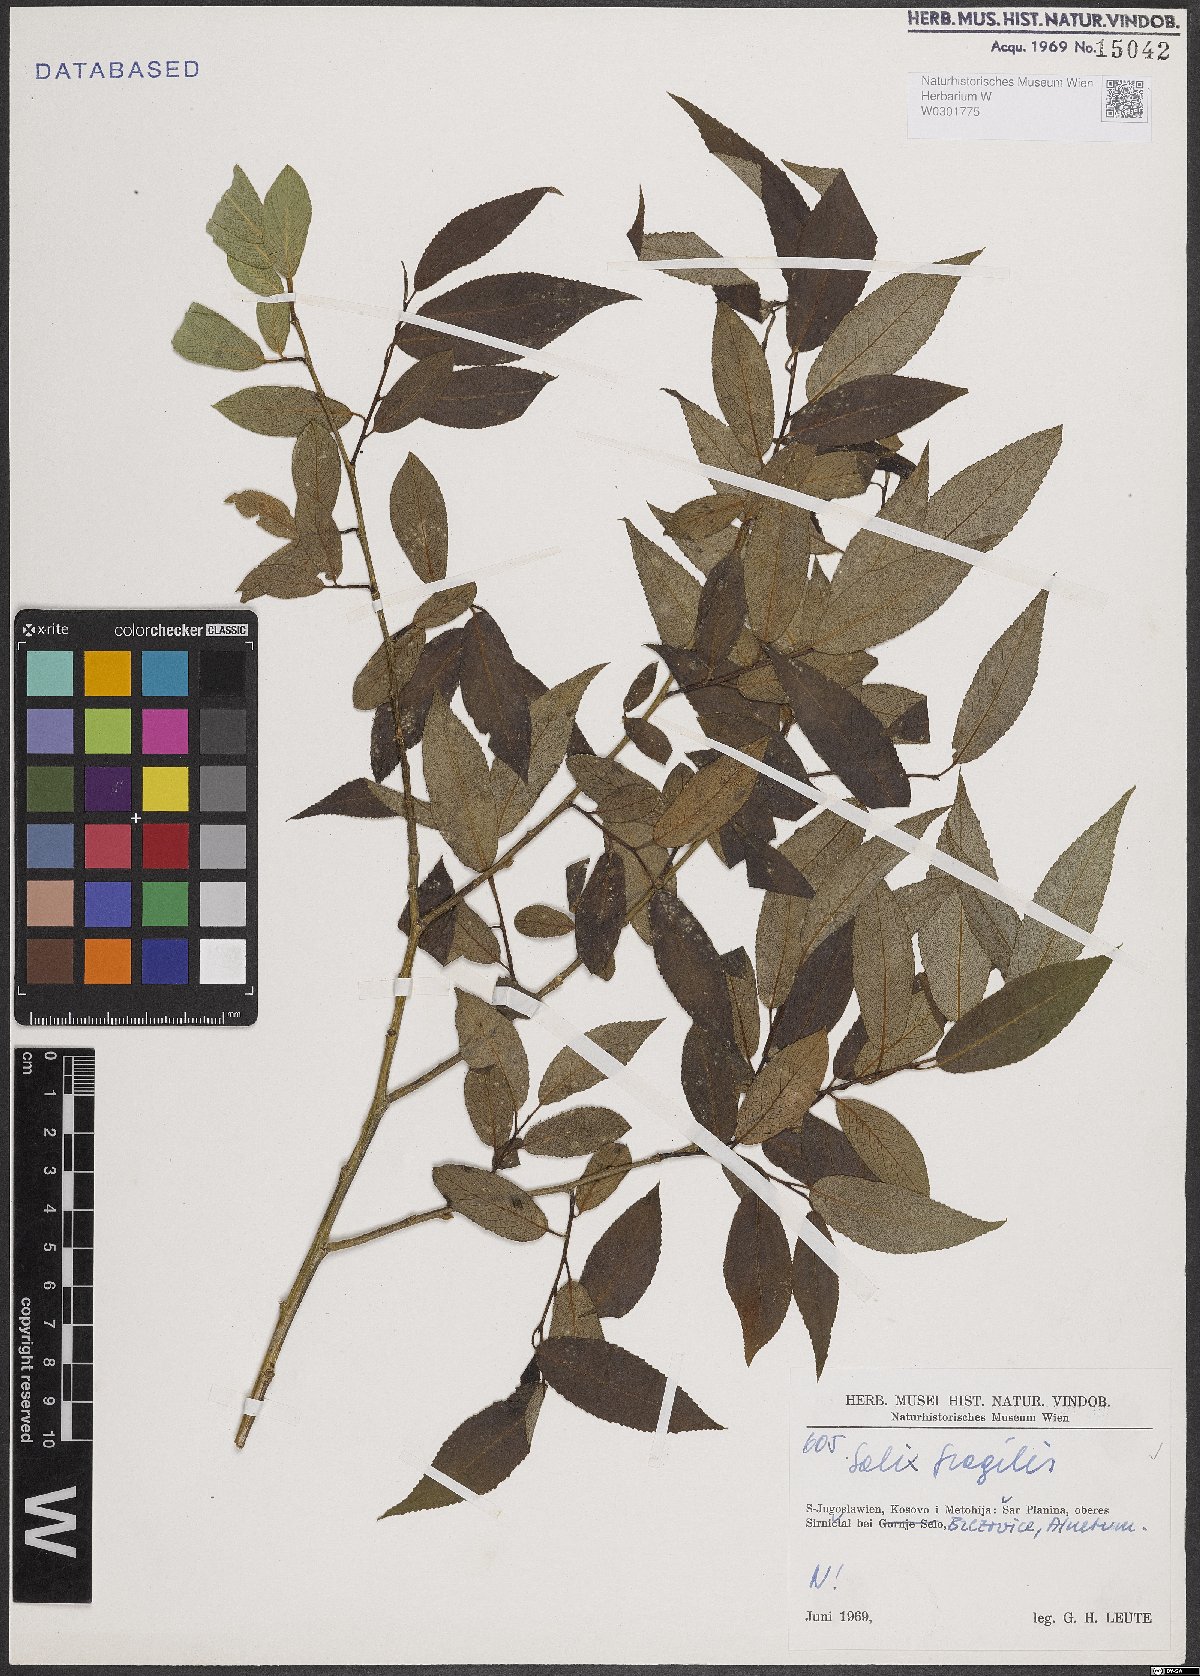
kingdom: Plantae
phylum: Tracheophyta
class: Magnoliopsida
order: Malpighiales
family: Salicaceae
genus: Salix
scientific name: Salix fragilis
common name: Crack willow
